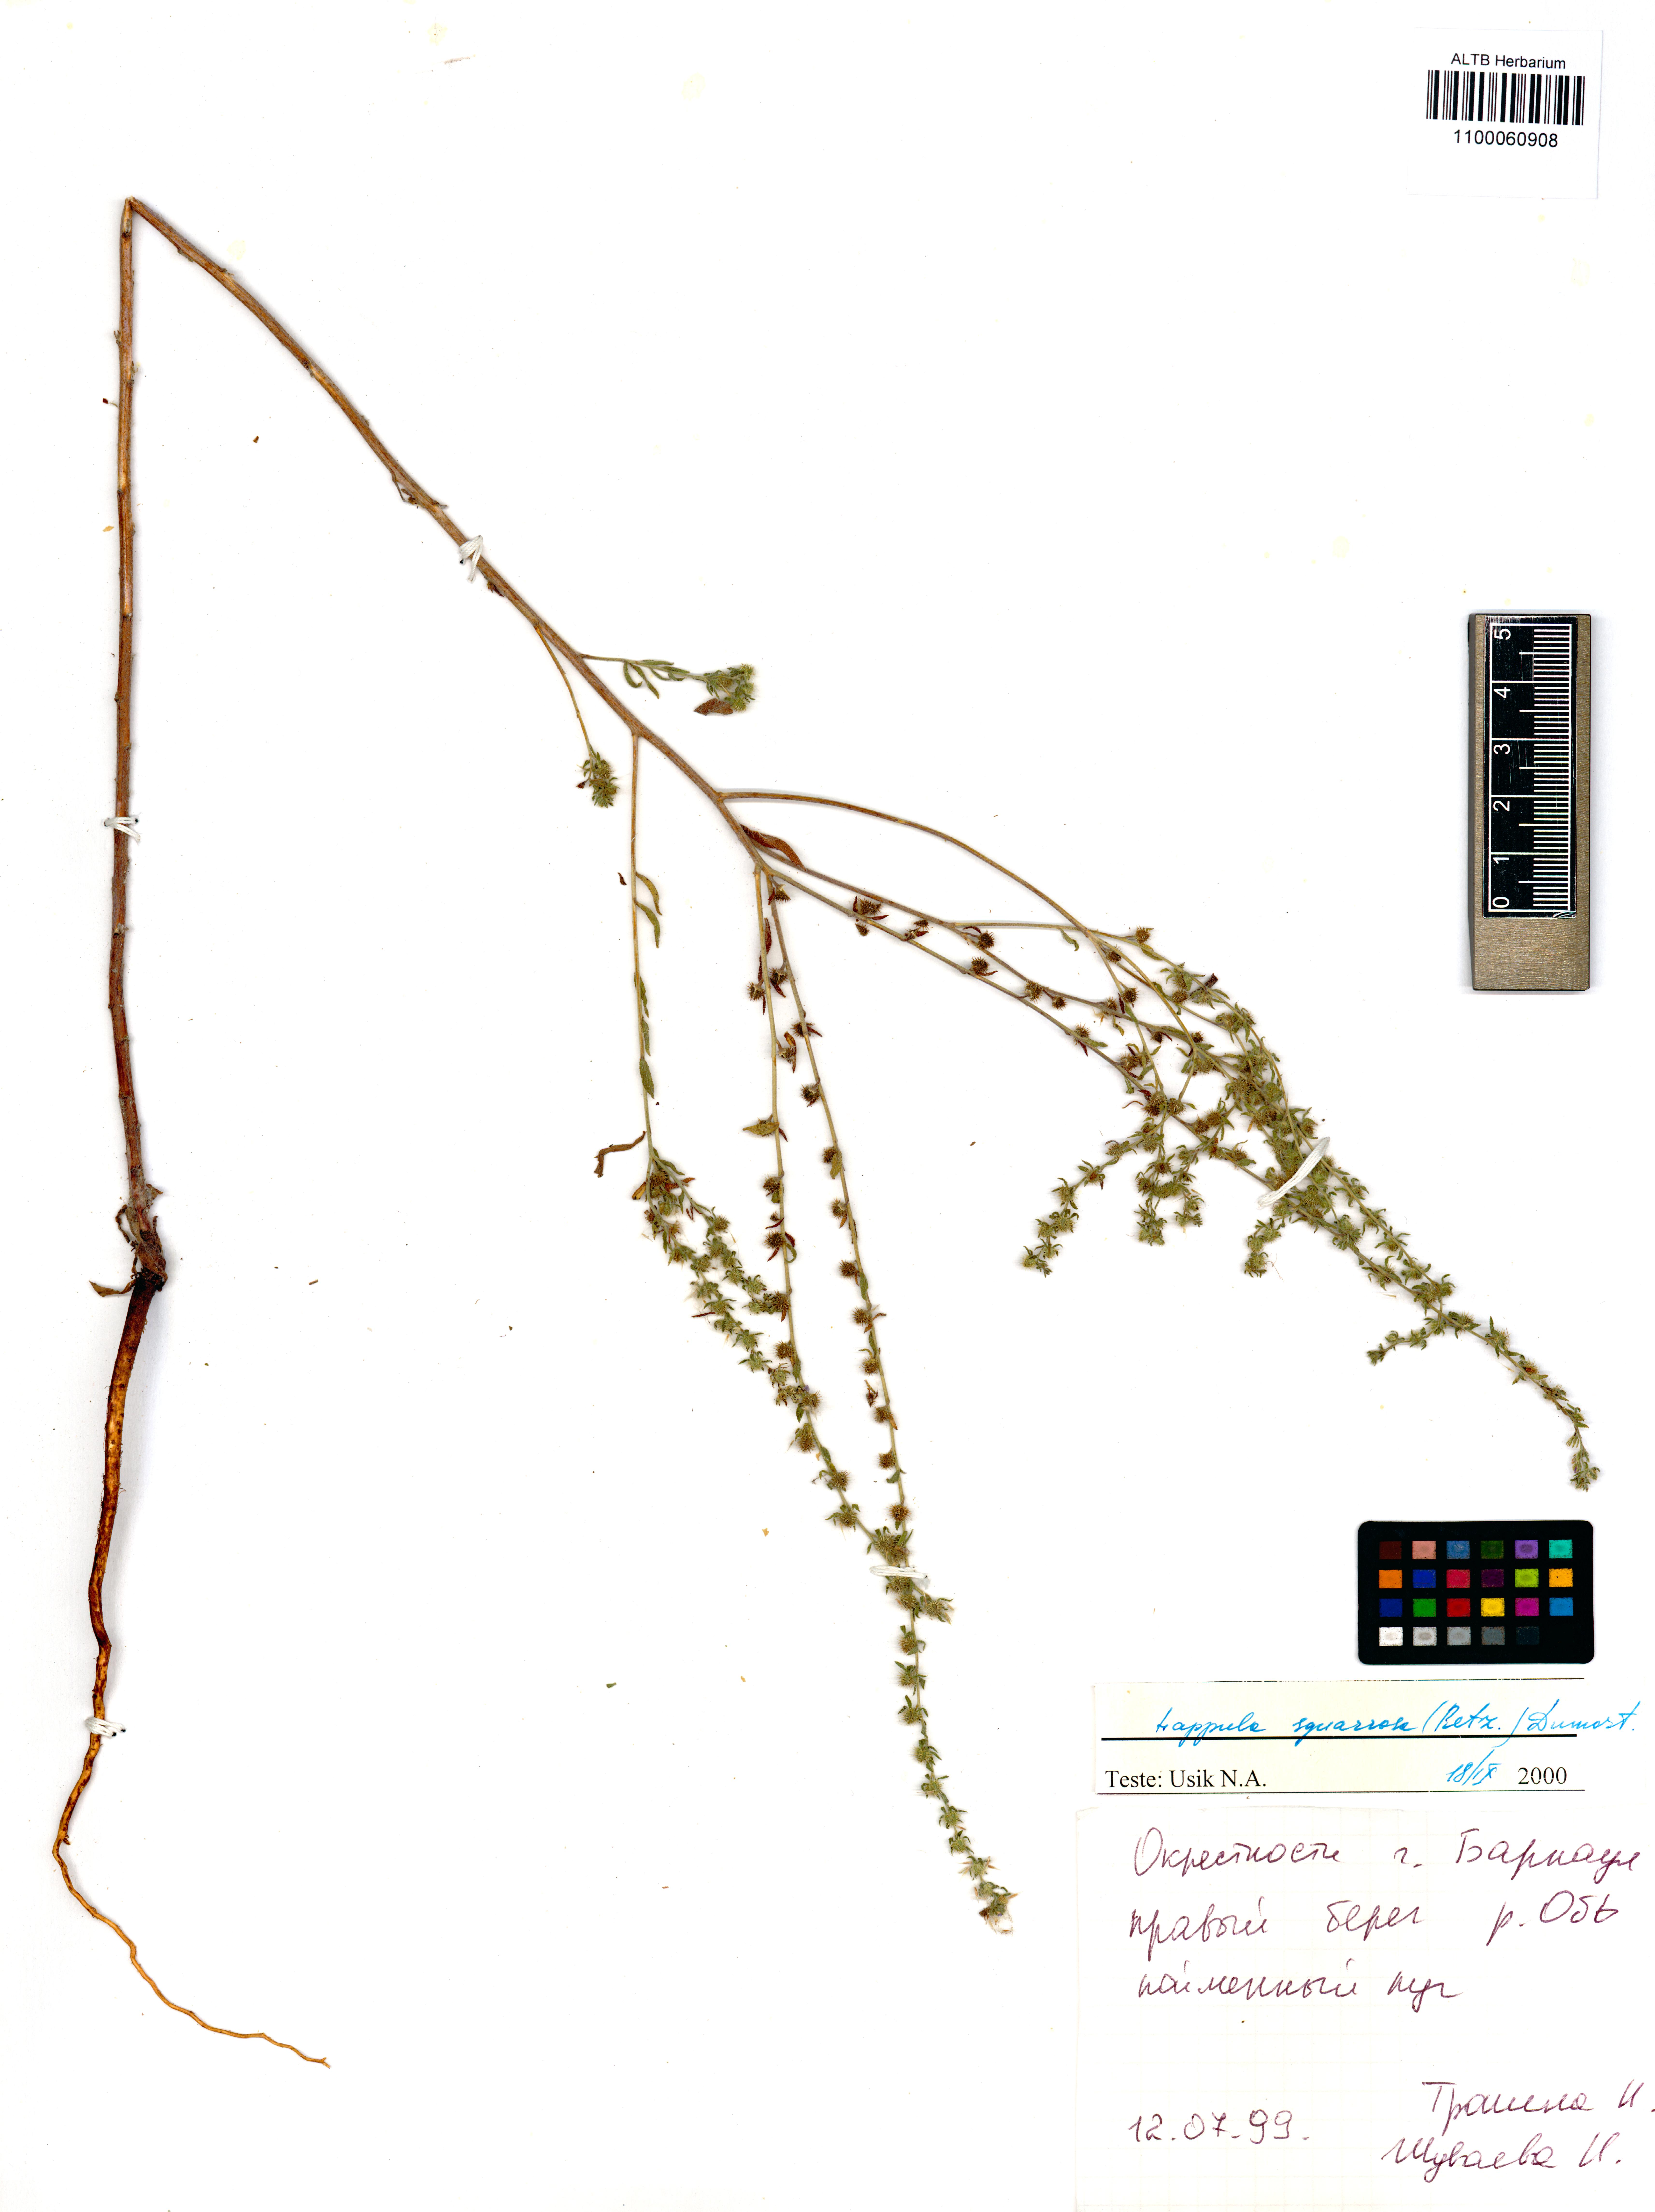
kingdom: Plantae
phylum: Tracheophyta
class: Magnoliopsida
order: Boraginales
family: Boraginaceae
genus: Lappula
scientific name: Lappula squarrosa
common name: European stickseed
